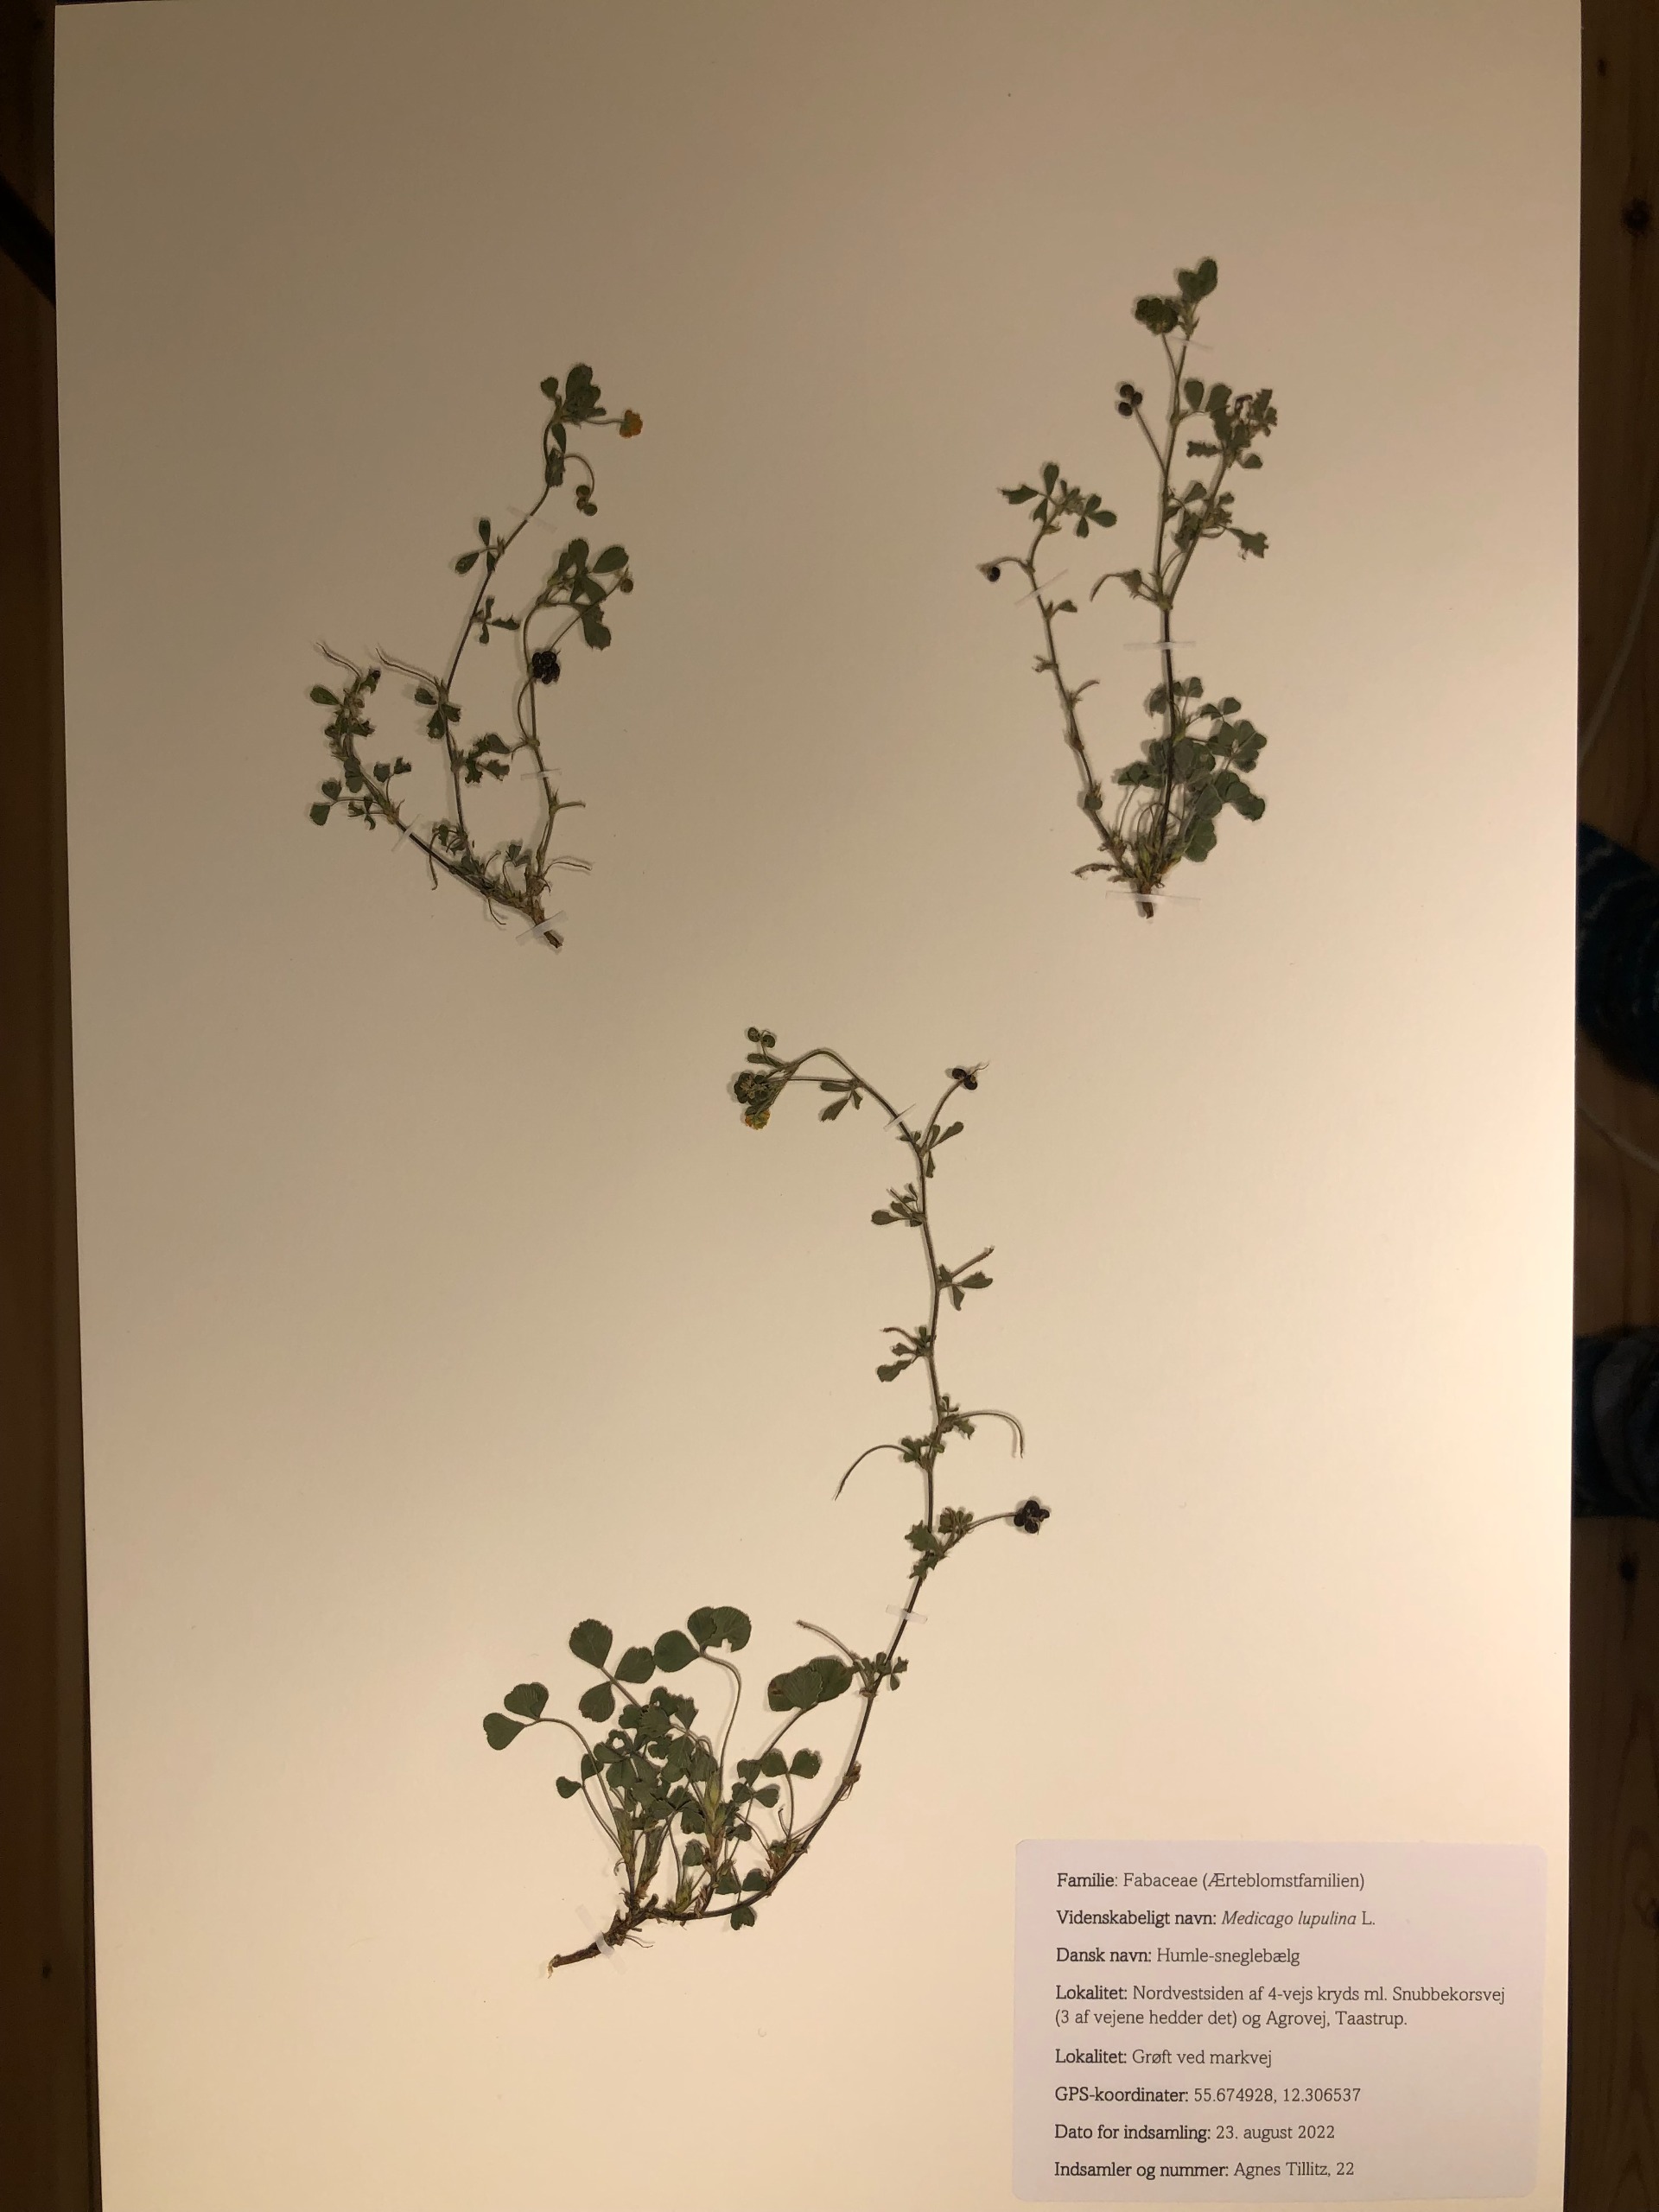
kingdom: Plantae
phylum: Tracheophyta
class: Magnoliopsida
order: Fabales
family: Fabaceae
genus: Medicago
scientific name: Medicago lupulina
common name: Humle-sneglebælg
